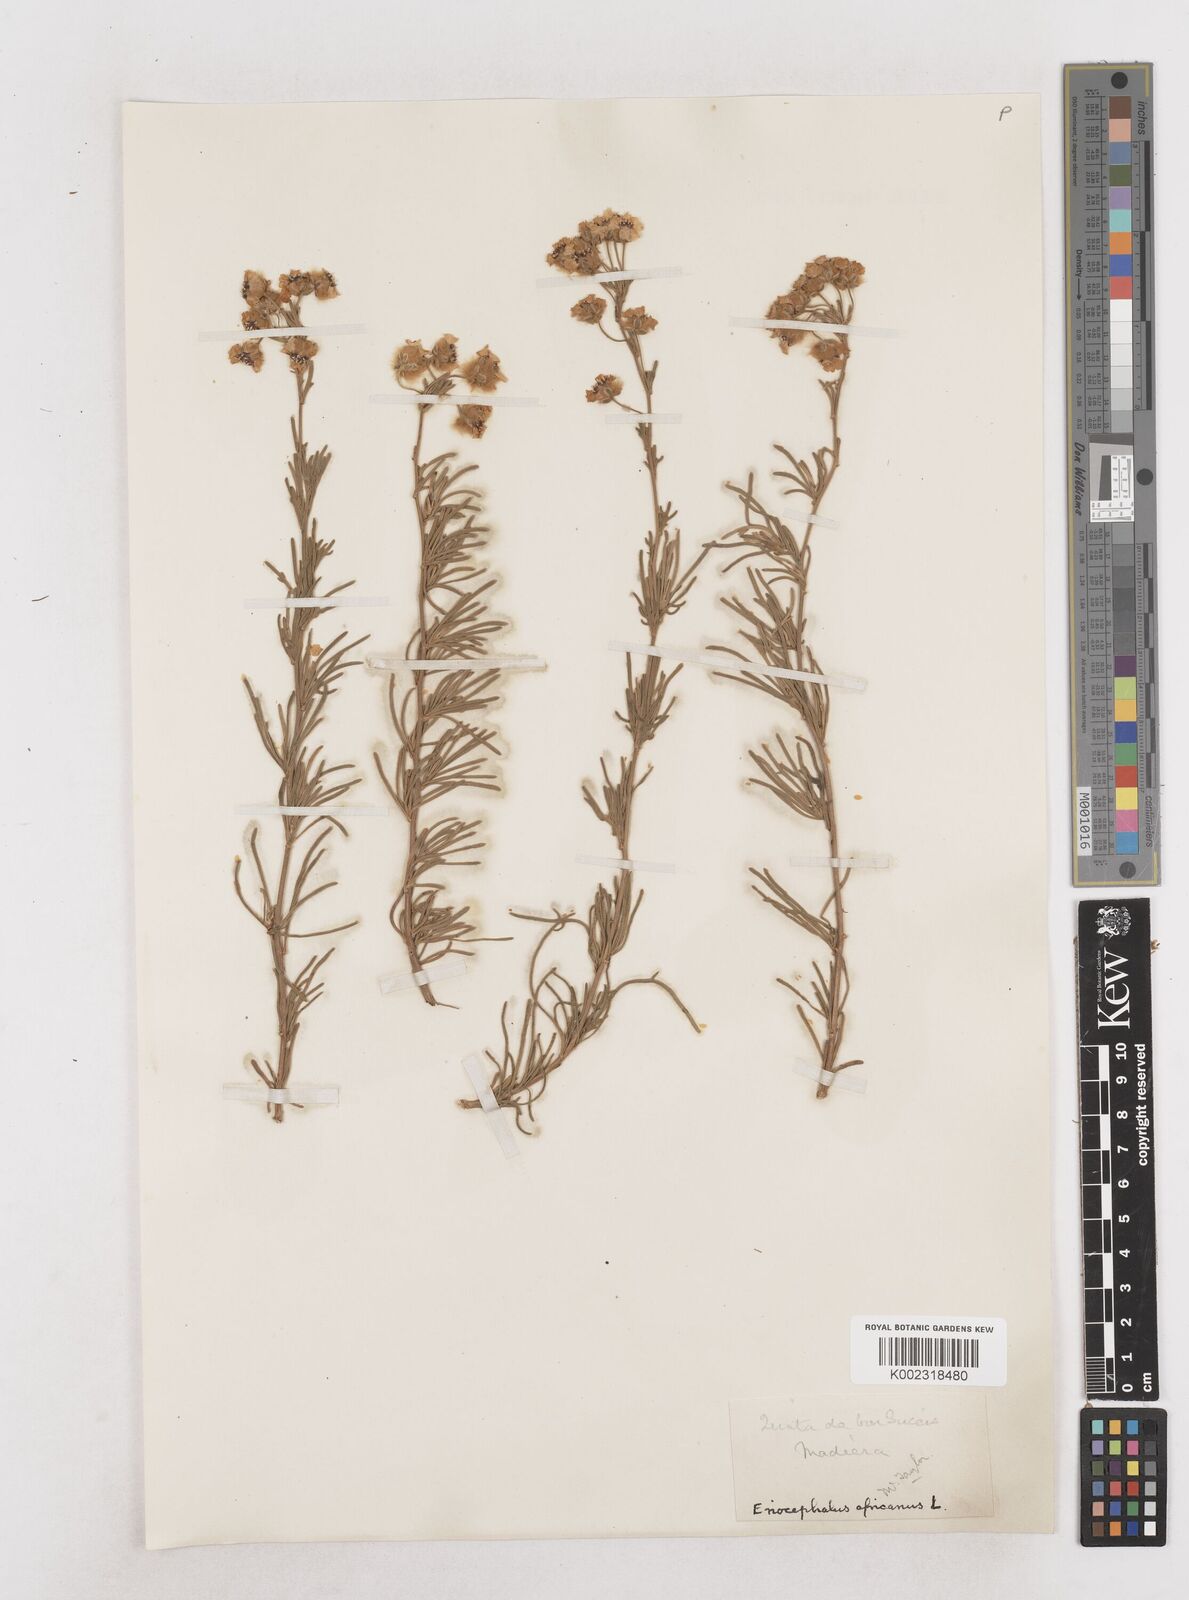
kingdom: Plantae
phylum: Tracheophyta
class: Magnoliopsida
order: Asterales
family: Asteraceae
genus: Eriocephalus
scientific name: Eriocephalus africanus
